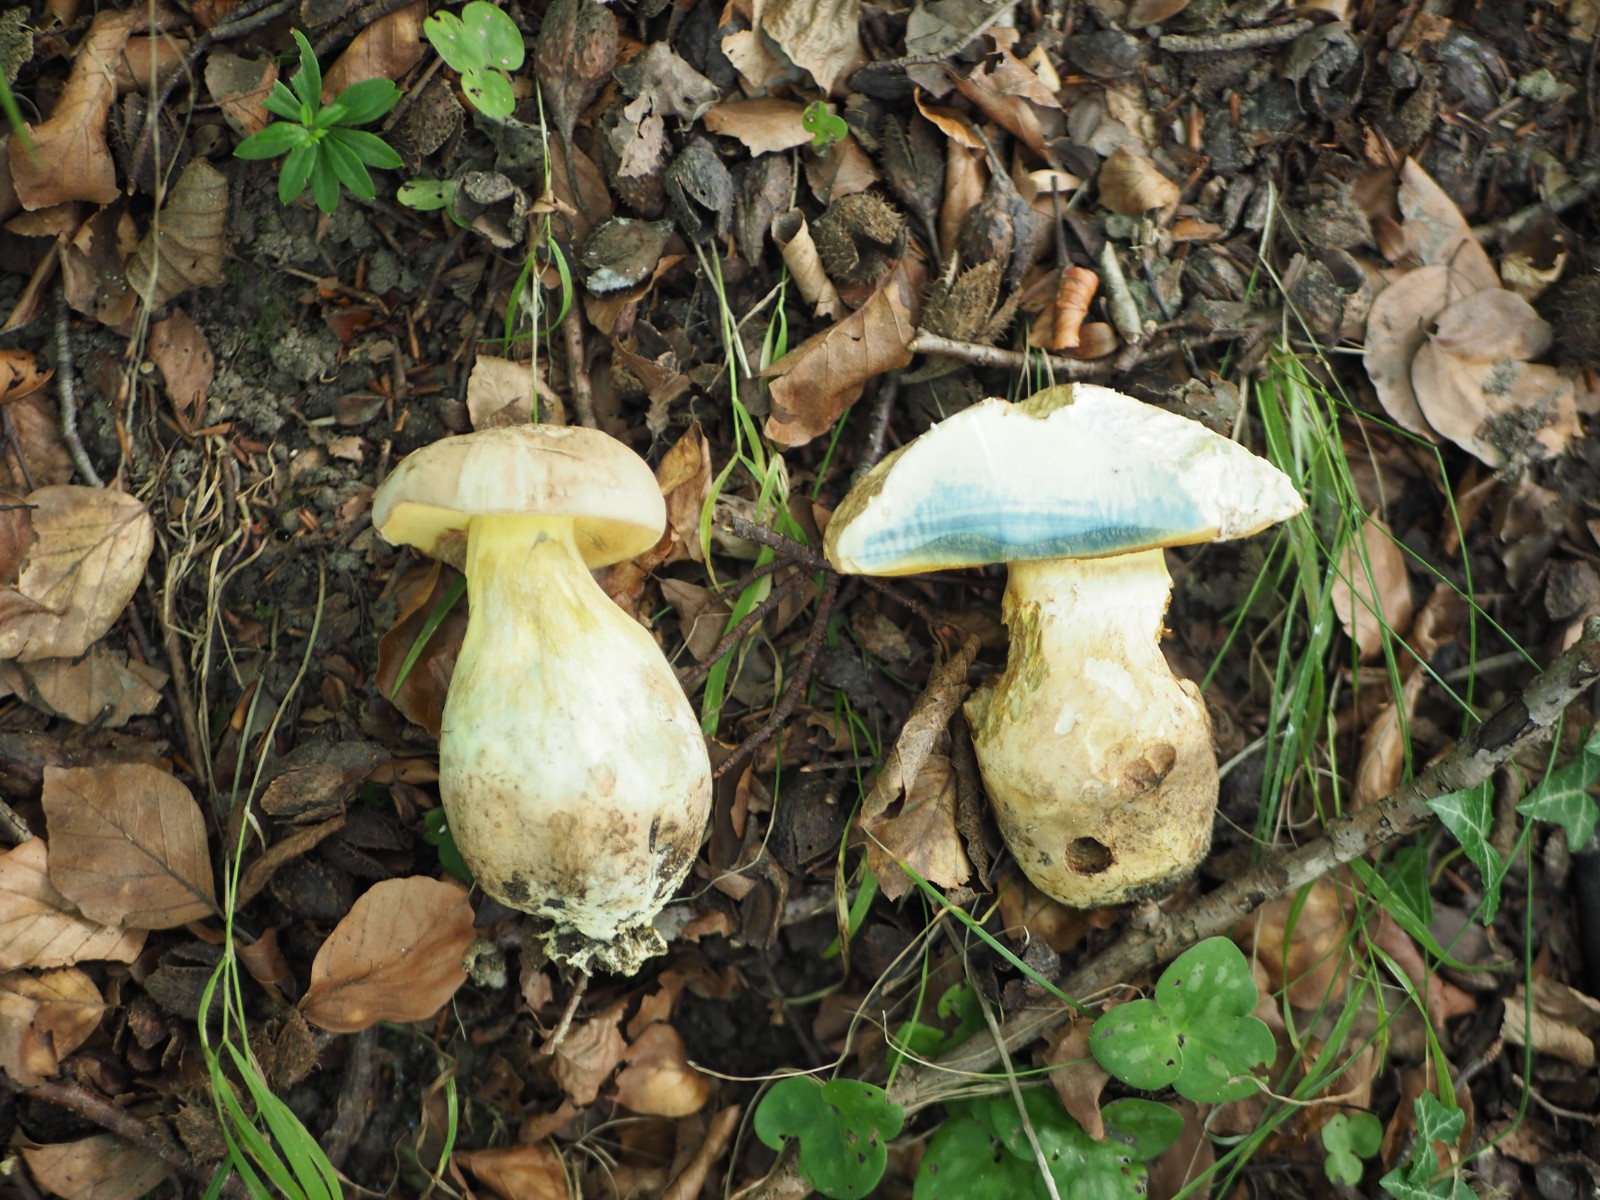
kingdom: Fungi
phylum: Basidiomycota
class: Agaricomycetes
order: Boletales
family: Boletaceae
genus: Caloboletus
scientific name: Caloboletus radicans
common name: rod-rørhat
